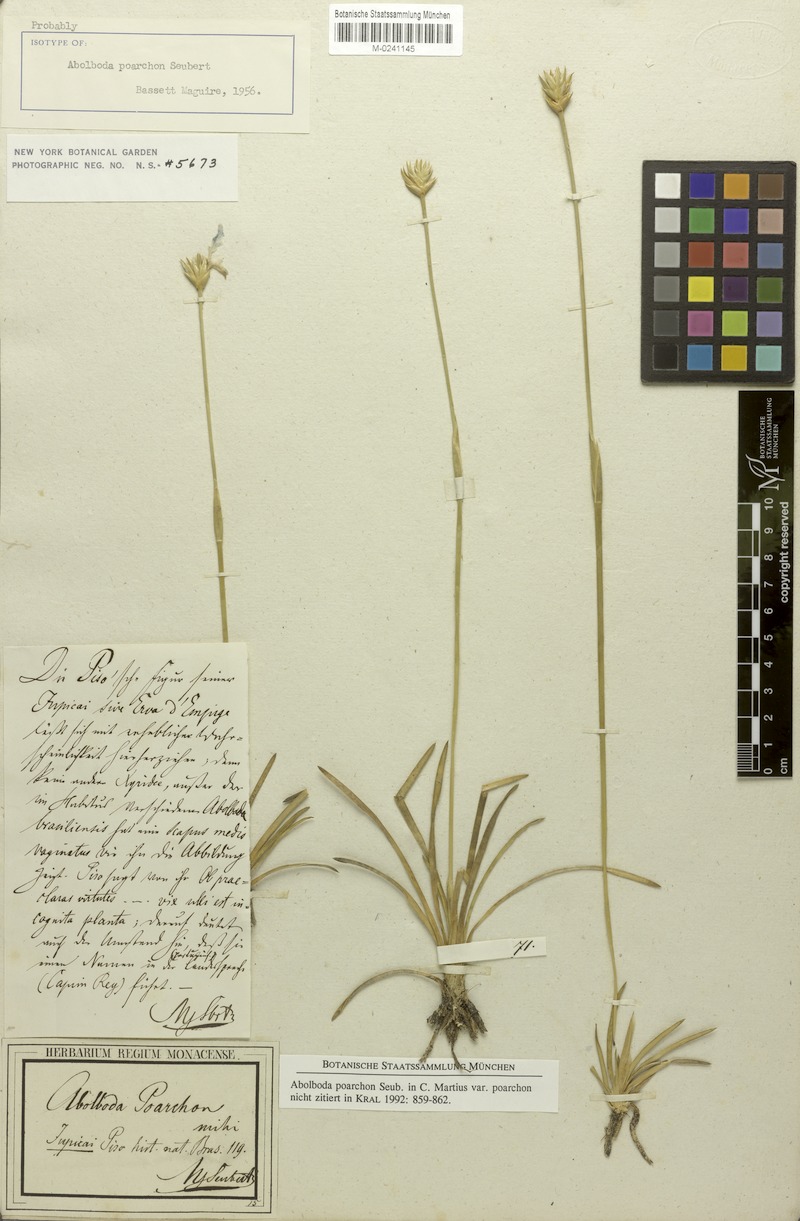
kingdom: Plantae
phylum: Tracheophyta
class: Liliopsida
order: Poales
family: Xyridaceae
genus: Abolboda
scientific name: Abolboda poarchon
